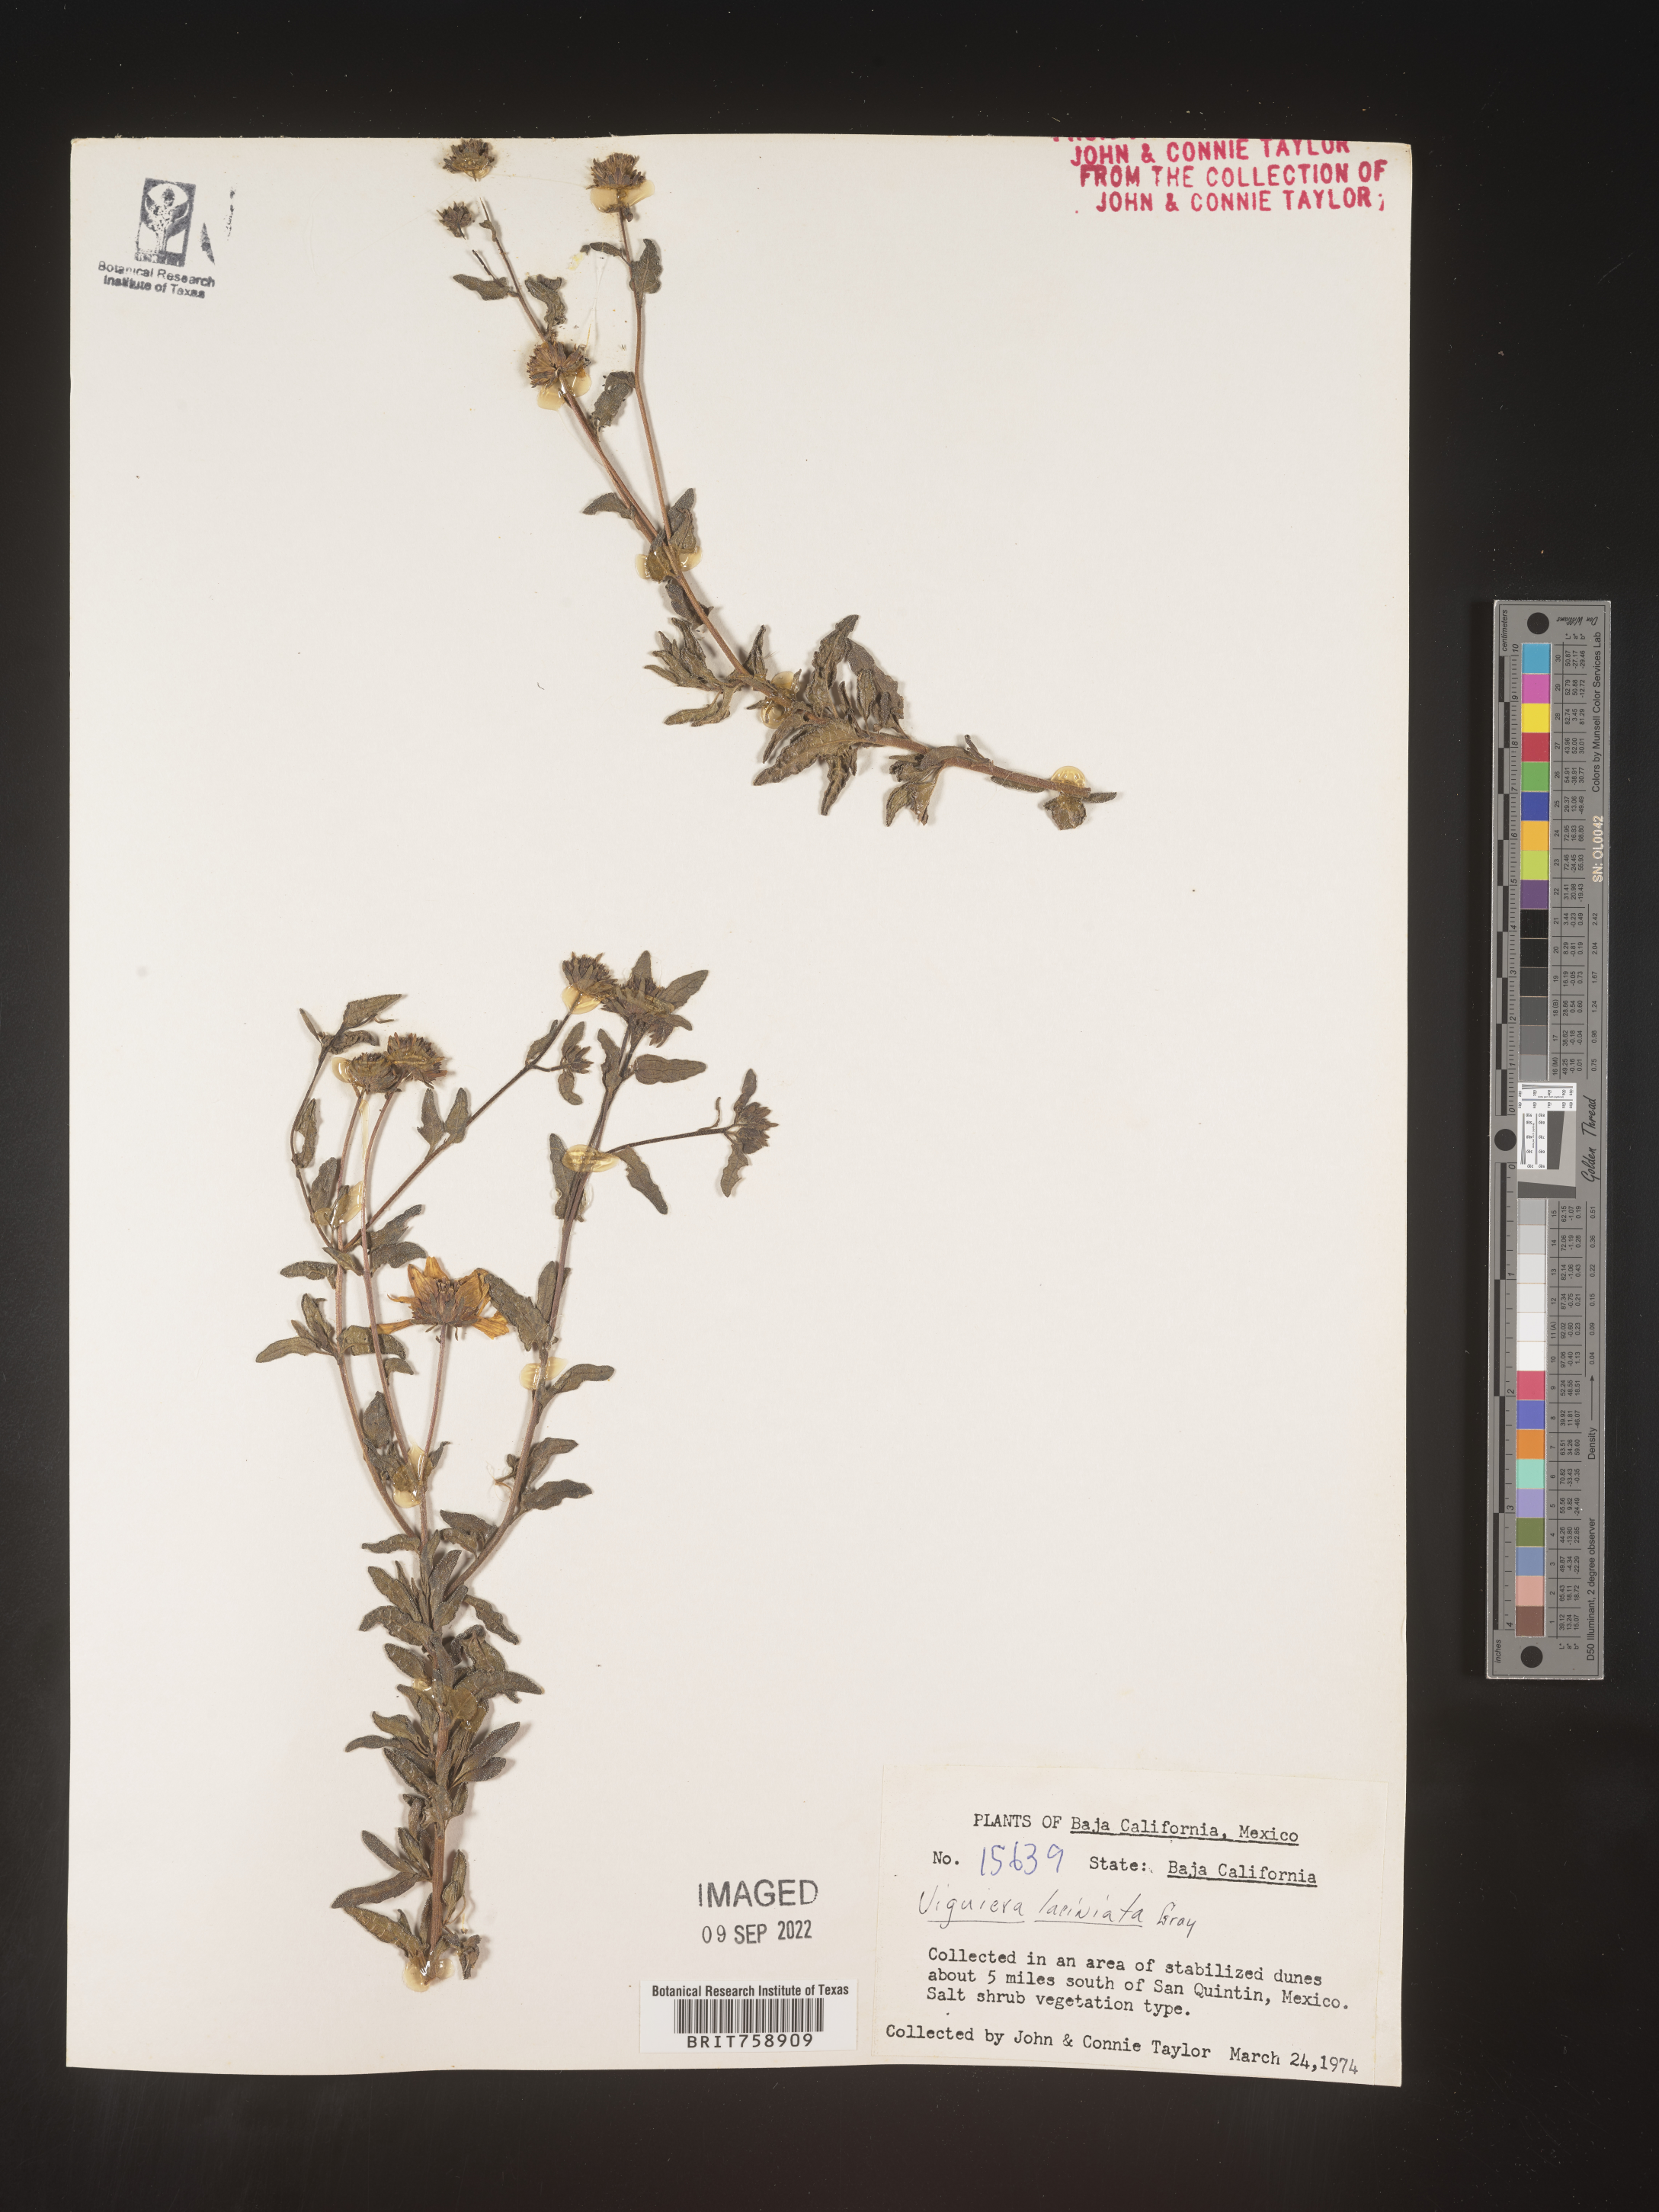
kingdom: Plantae
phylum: Tracheophyta
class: Magnoliopsida
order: Asterales
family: Asteraceae
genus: Viguiera
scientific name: Viguiera
